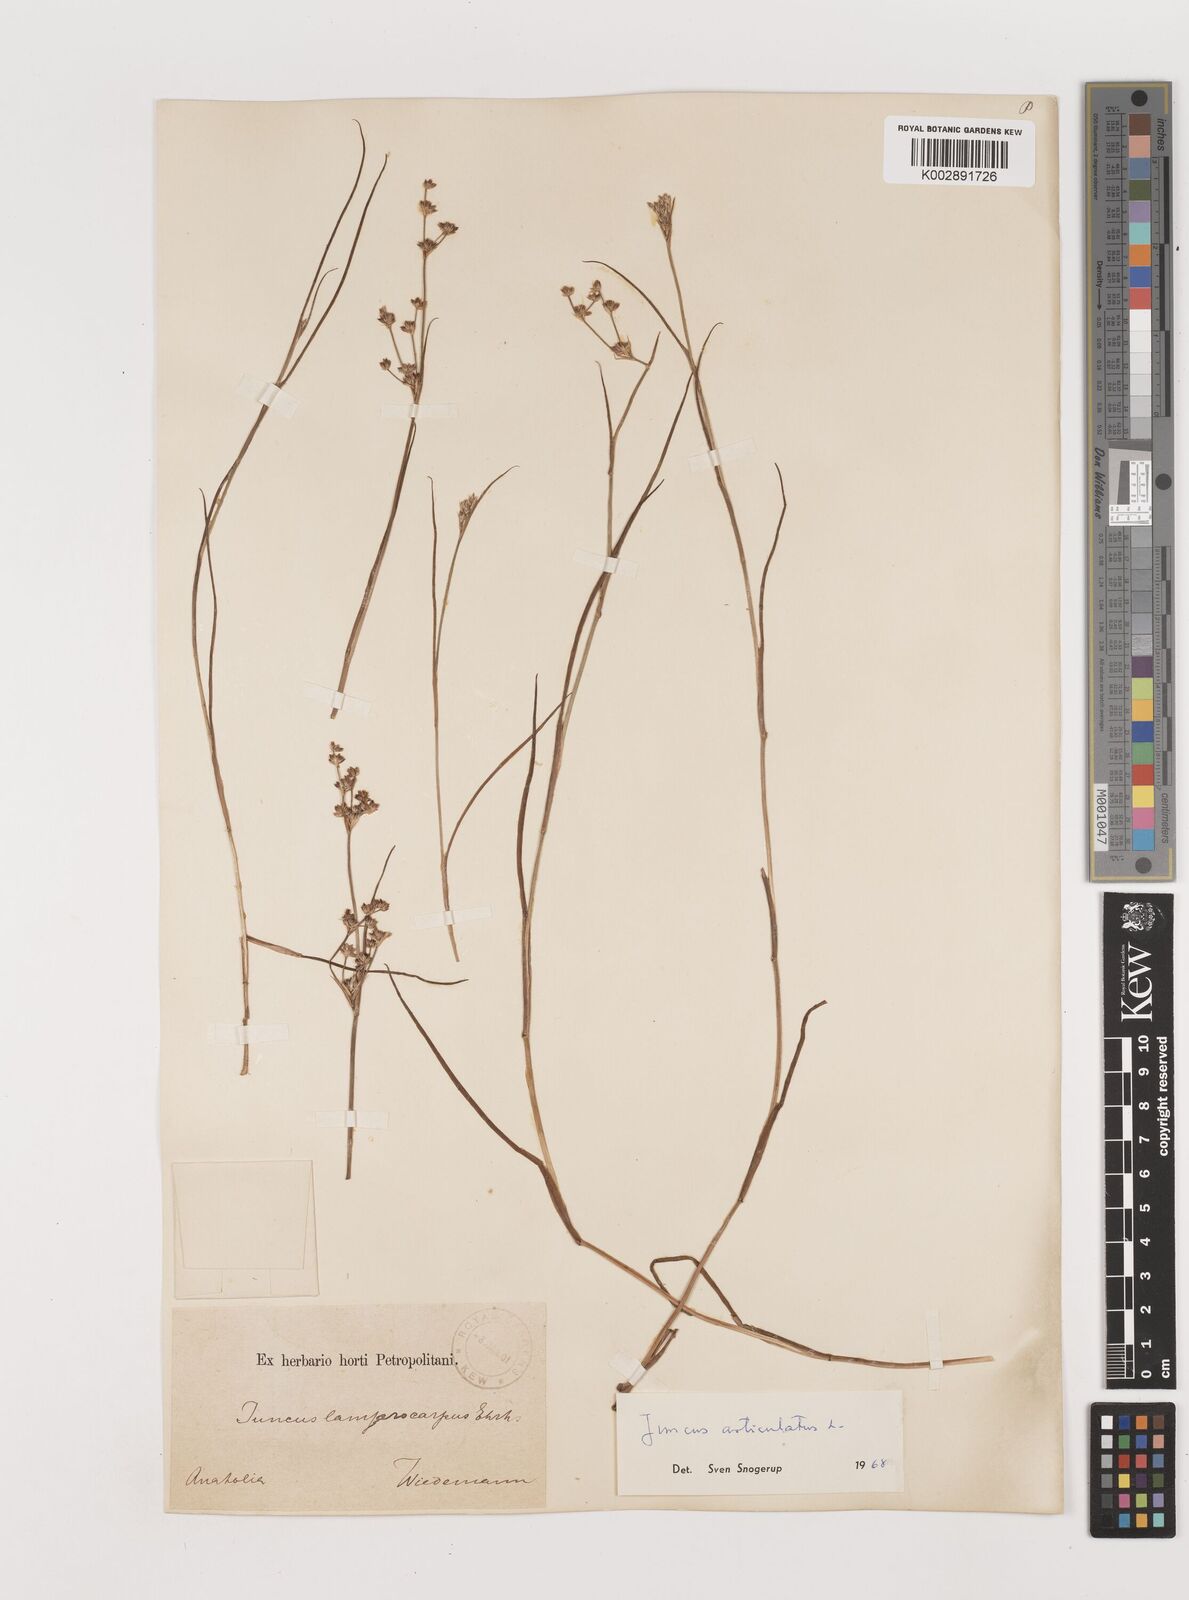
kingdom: Plantae
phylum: Tracheophyta
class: Liliopsida
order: Poales
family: Juncaceae
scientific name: Juncaceae
